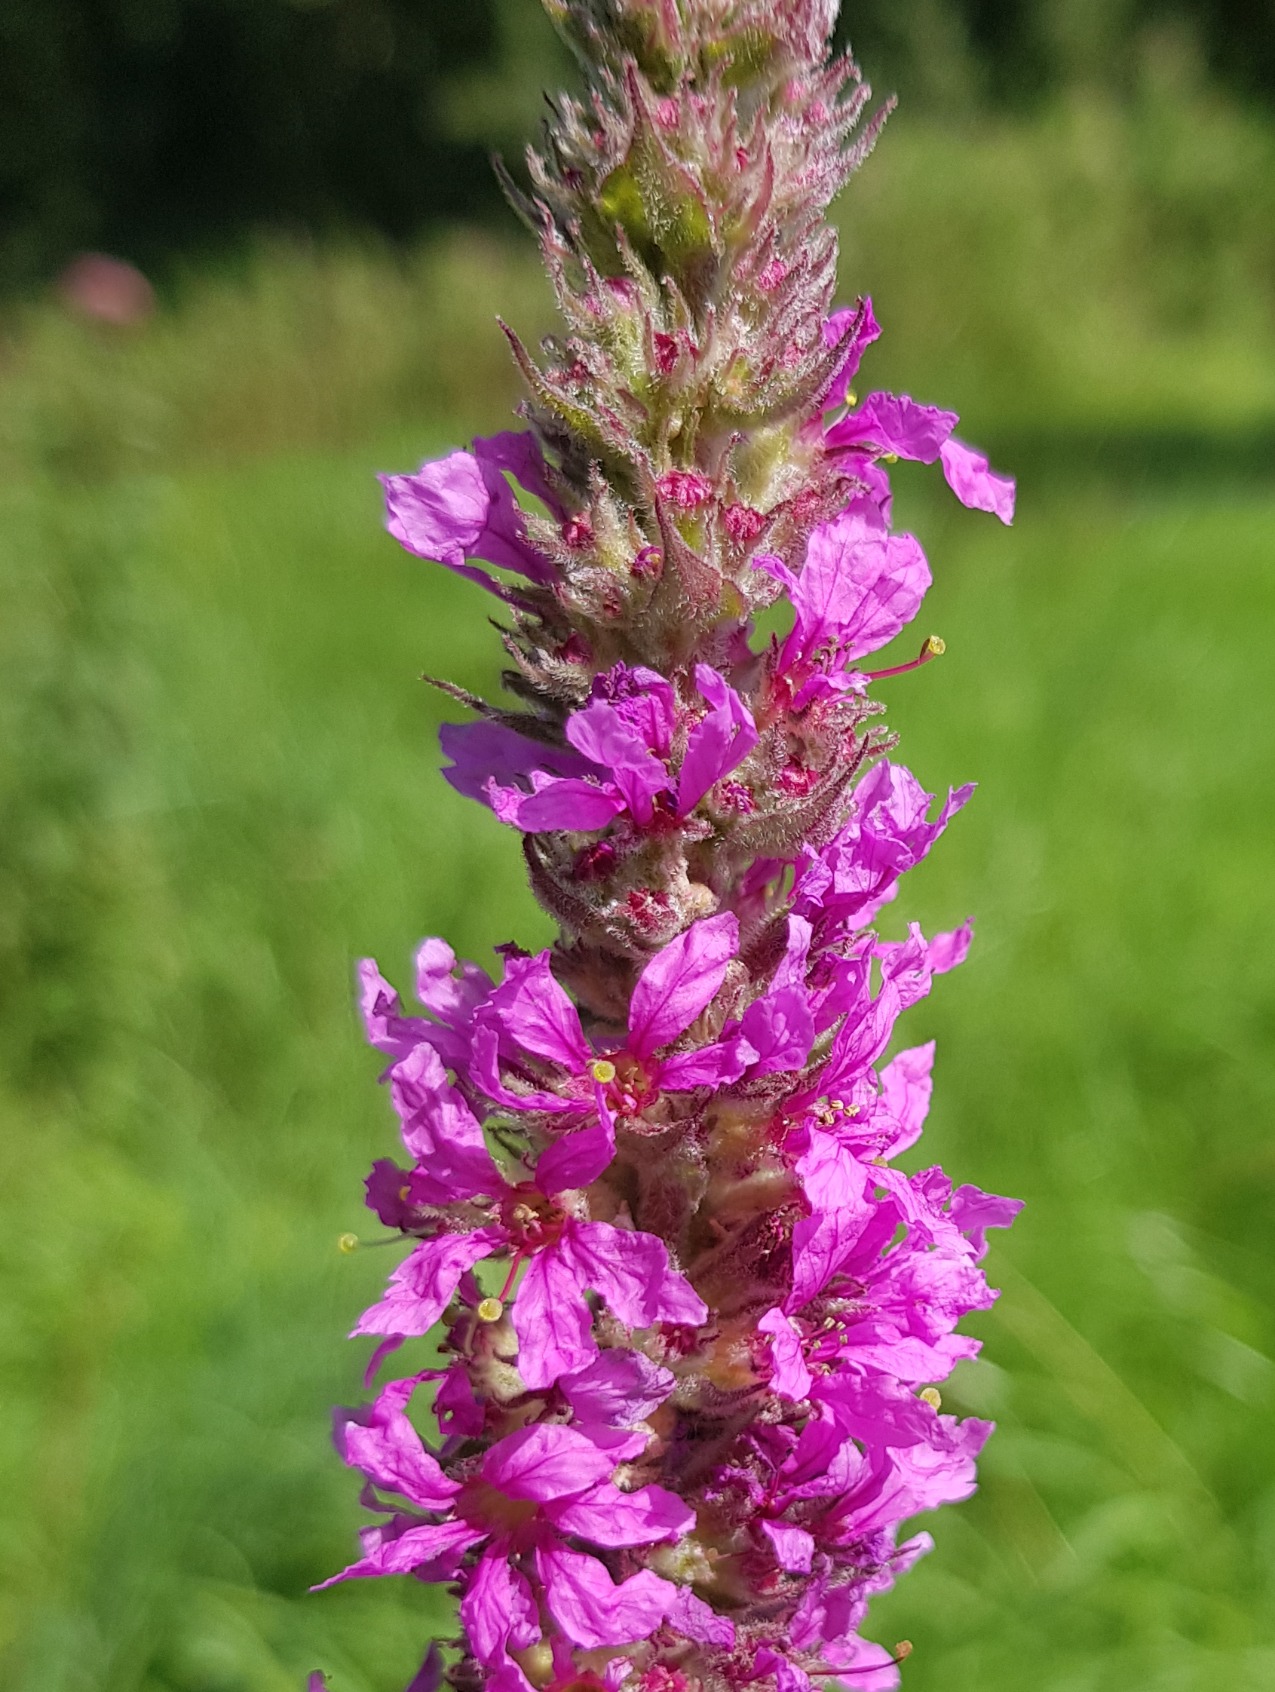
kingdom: Plantae
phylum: Tracheophyta
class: Magnoliopsida
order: Myrtales
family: Lythraceae
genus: Lythrum
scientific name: Lythrum salicaria
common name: Kattehale
